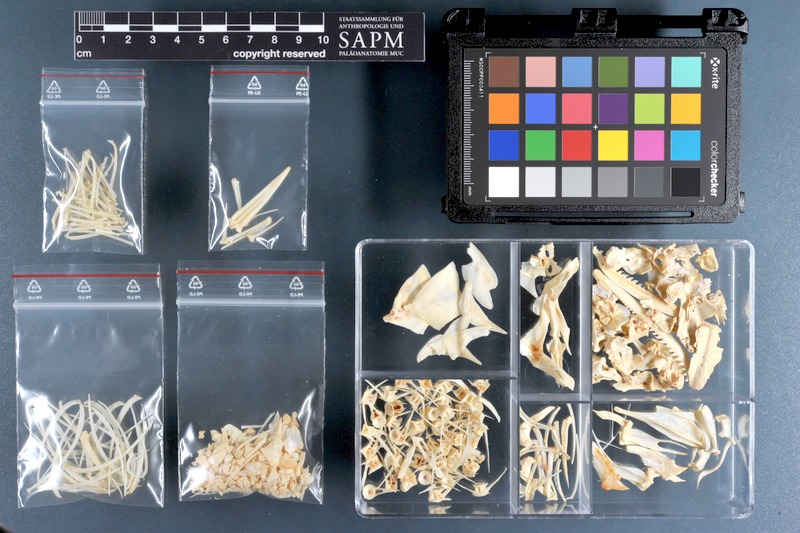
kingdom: Animalia
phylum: Chordata
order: Cypriniformes
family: Cyprinidae
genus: Capoeta
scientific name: Capoeta trutta
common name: Longspine scraper
